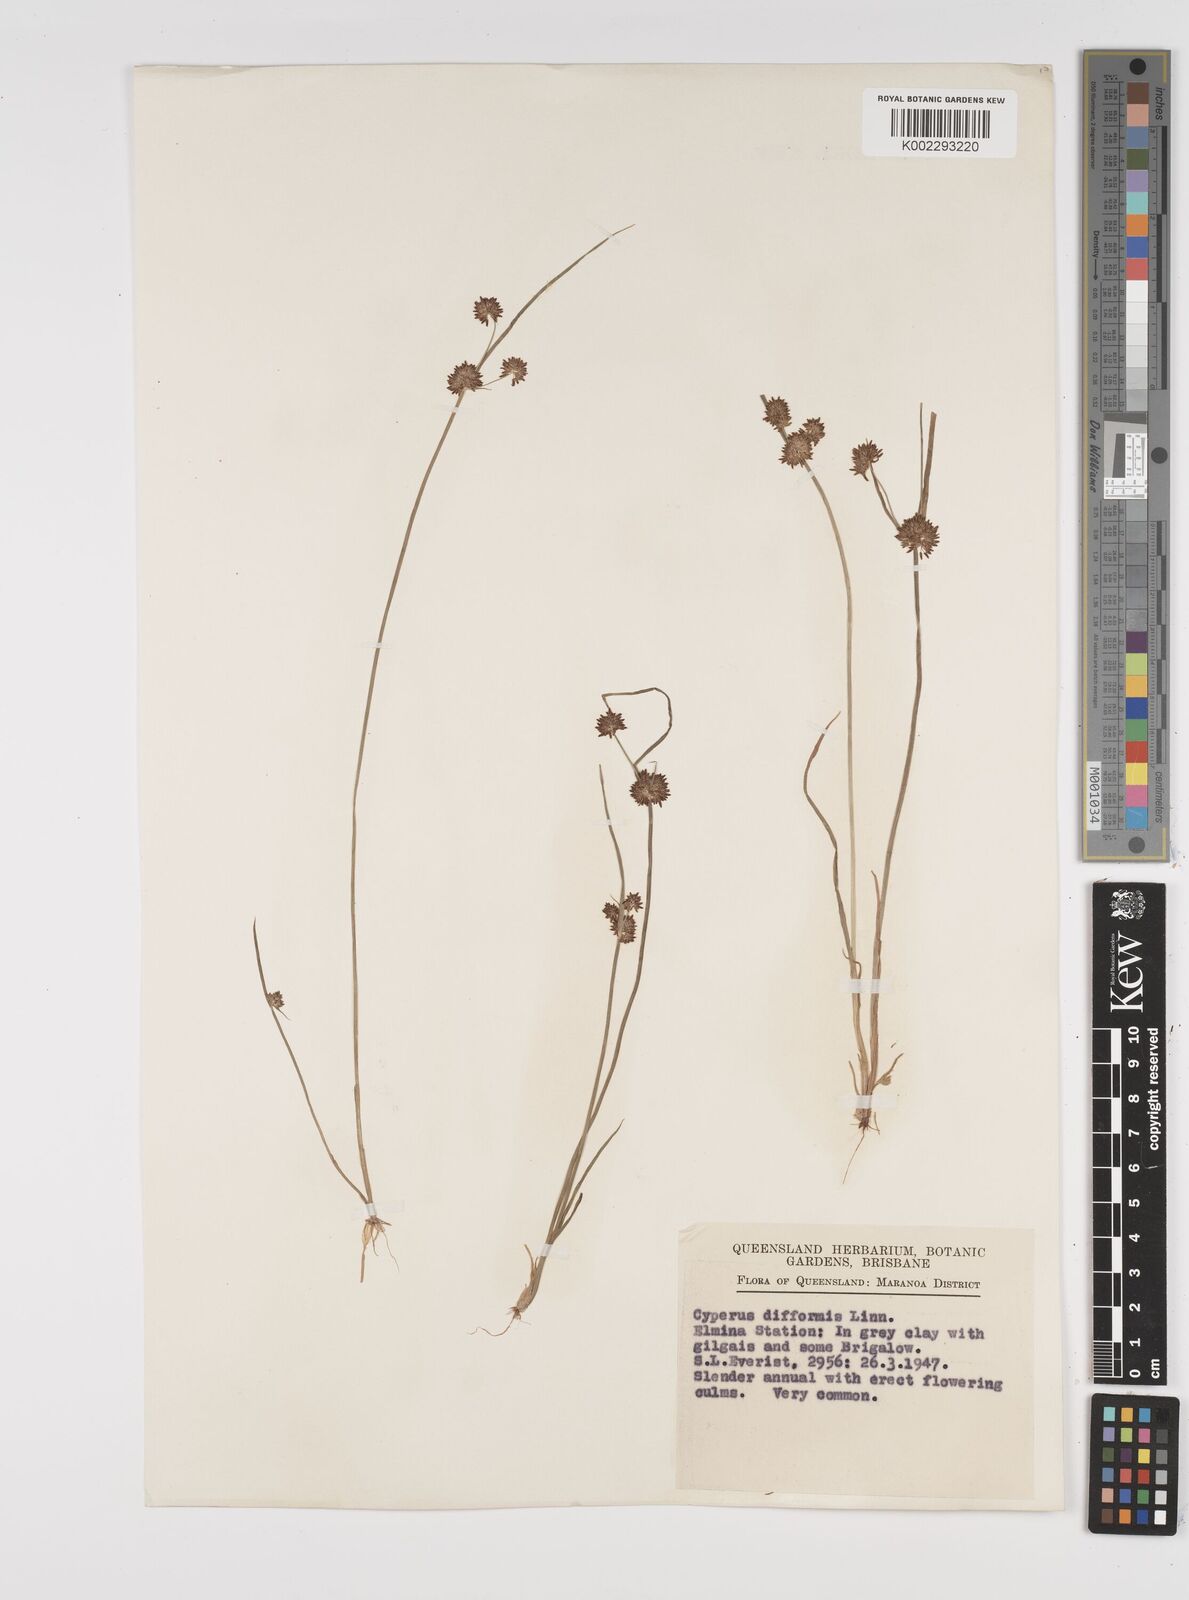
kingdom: Plantae
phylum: Tracheophyta
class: Liliopsida
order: Poales
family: Cyperaceae
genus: Cyperus
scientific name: Cyperus difformis
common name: Variable flatsedge
